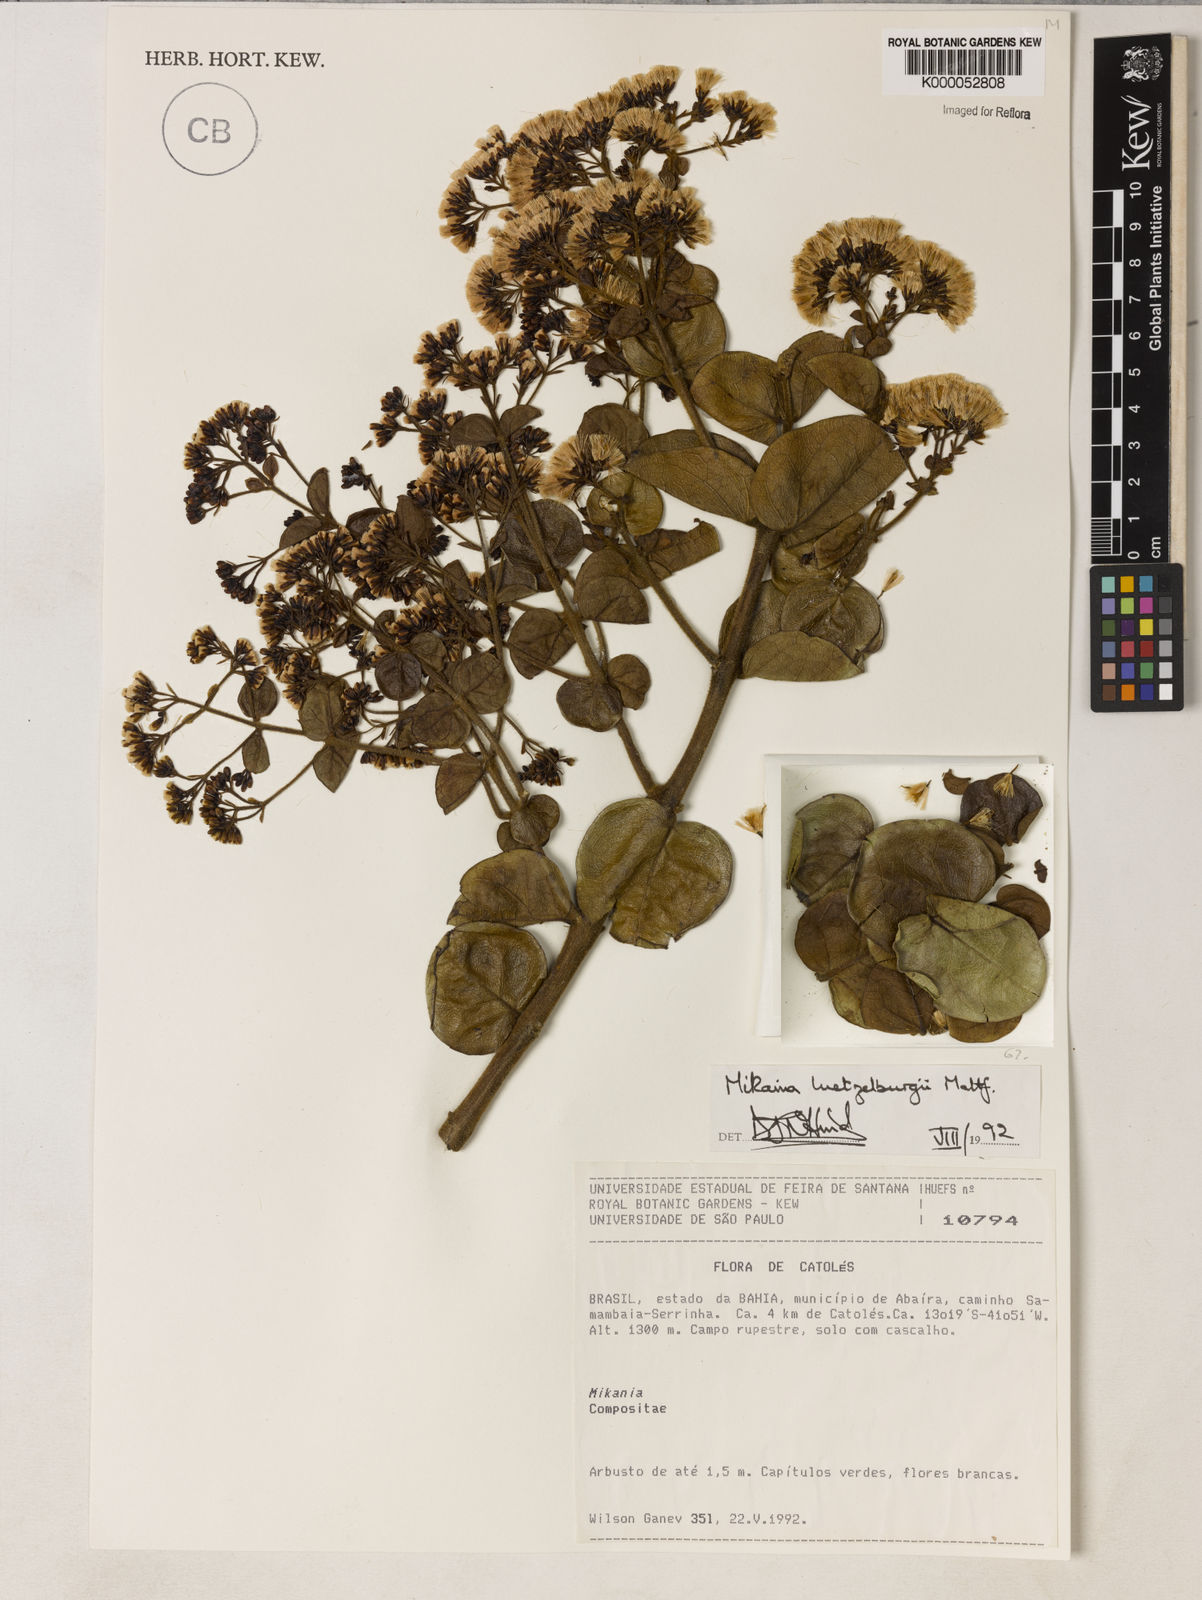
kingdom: Plantae
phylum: Tracheophyta
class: Magnoliopsida
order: Asterales
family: Asteraceae
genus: Mikania
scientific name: Mikania luetzelburgii
